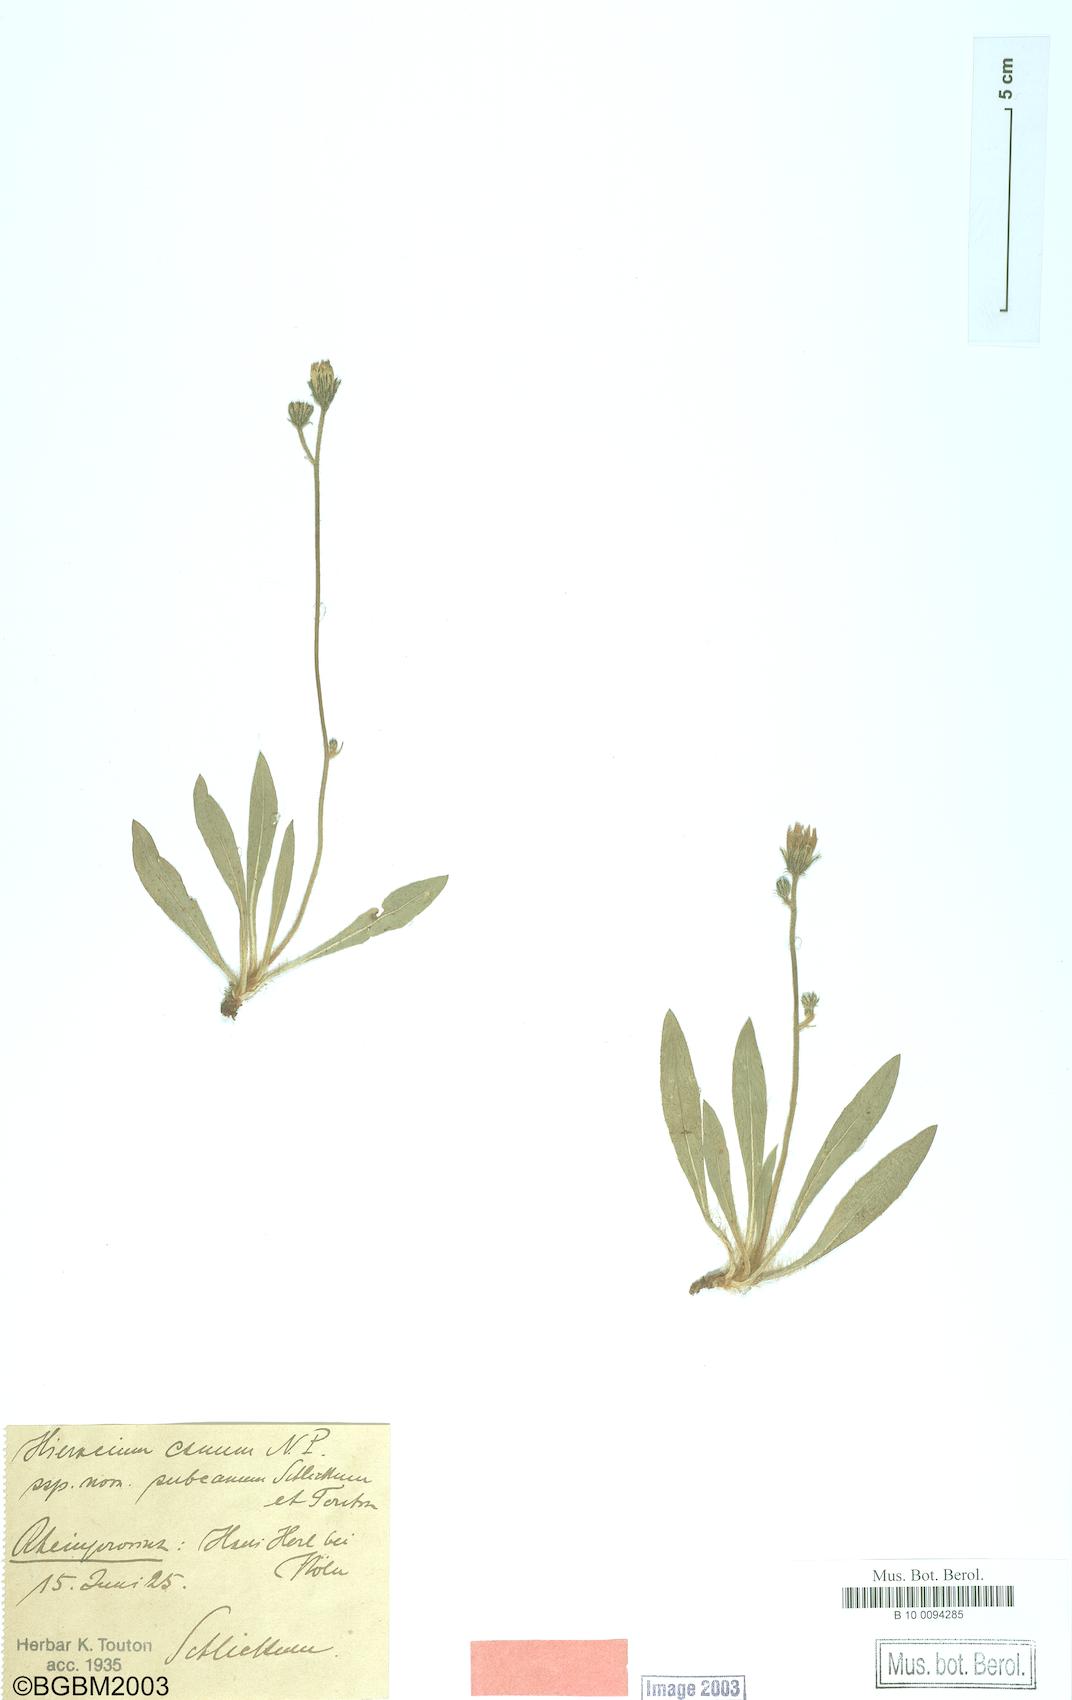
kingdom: Plantae
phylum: Tracheophyta
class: Magnoliopsida
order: Asterales
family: Asteraceae
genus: Pilosella
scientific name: Pilosella pilosellina
